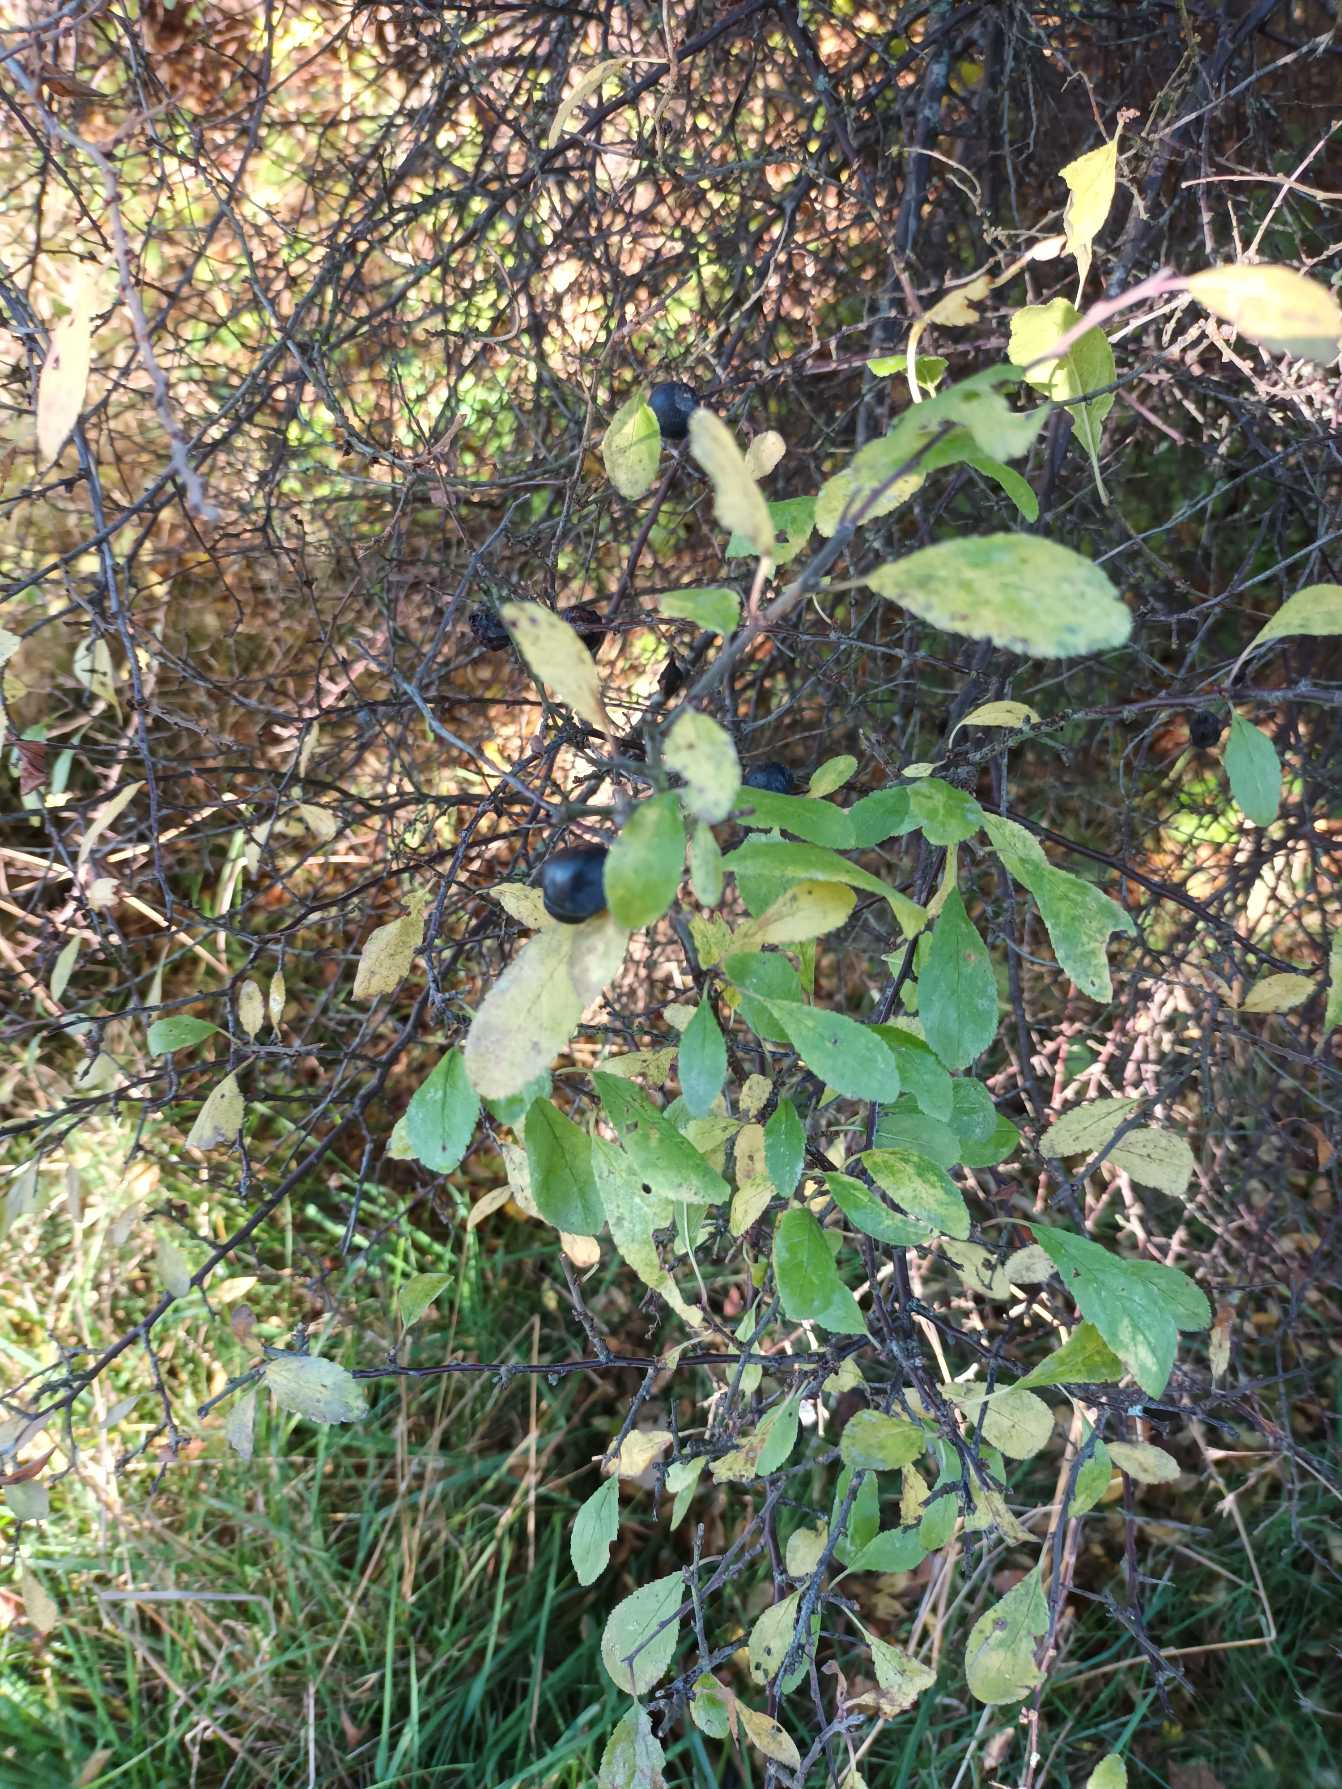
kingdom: Plantae
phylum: Tracheophyta
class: Magnoliopsida
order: Rosales
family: Rosaceae
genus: Prunus
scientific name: Prunus spinosa
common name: Slåen
